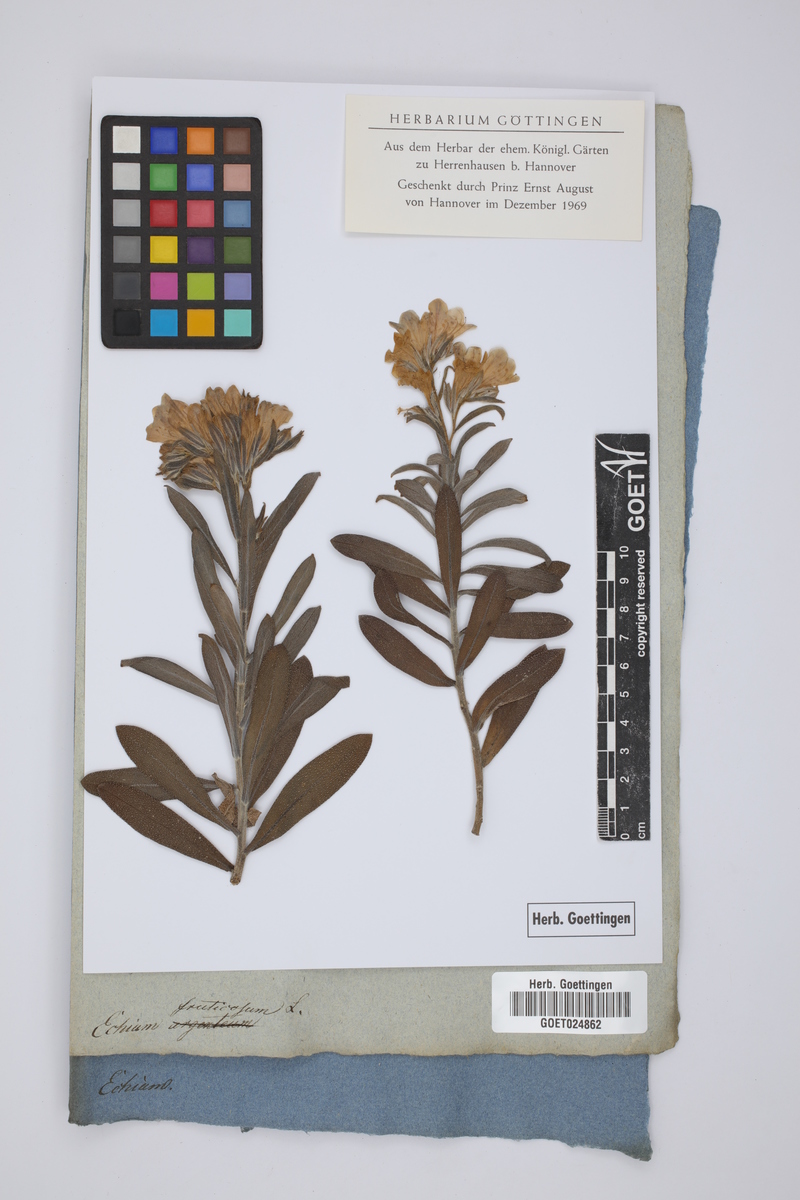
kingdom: Plantae
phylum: Tracheophyta
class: Magnoliopsida
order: Boraginales
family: Boraginaceae
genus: Lobostemon
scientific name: Lobostemon fruticosus
